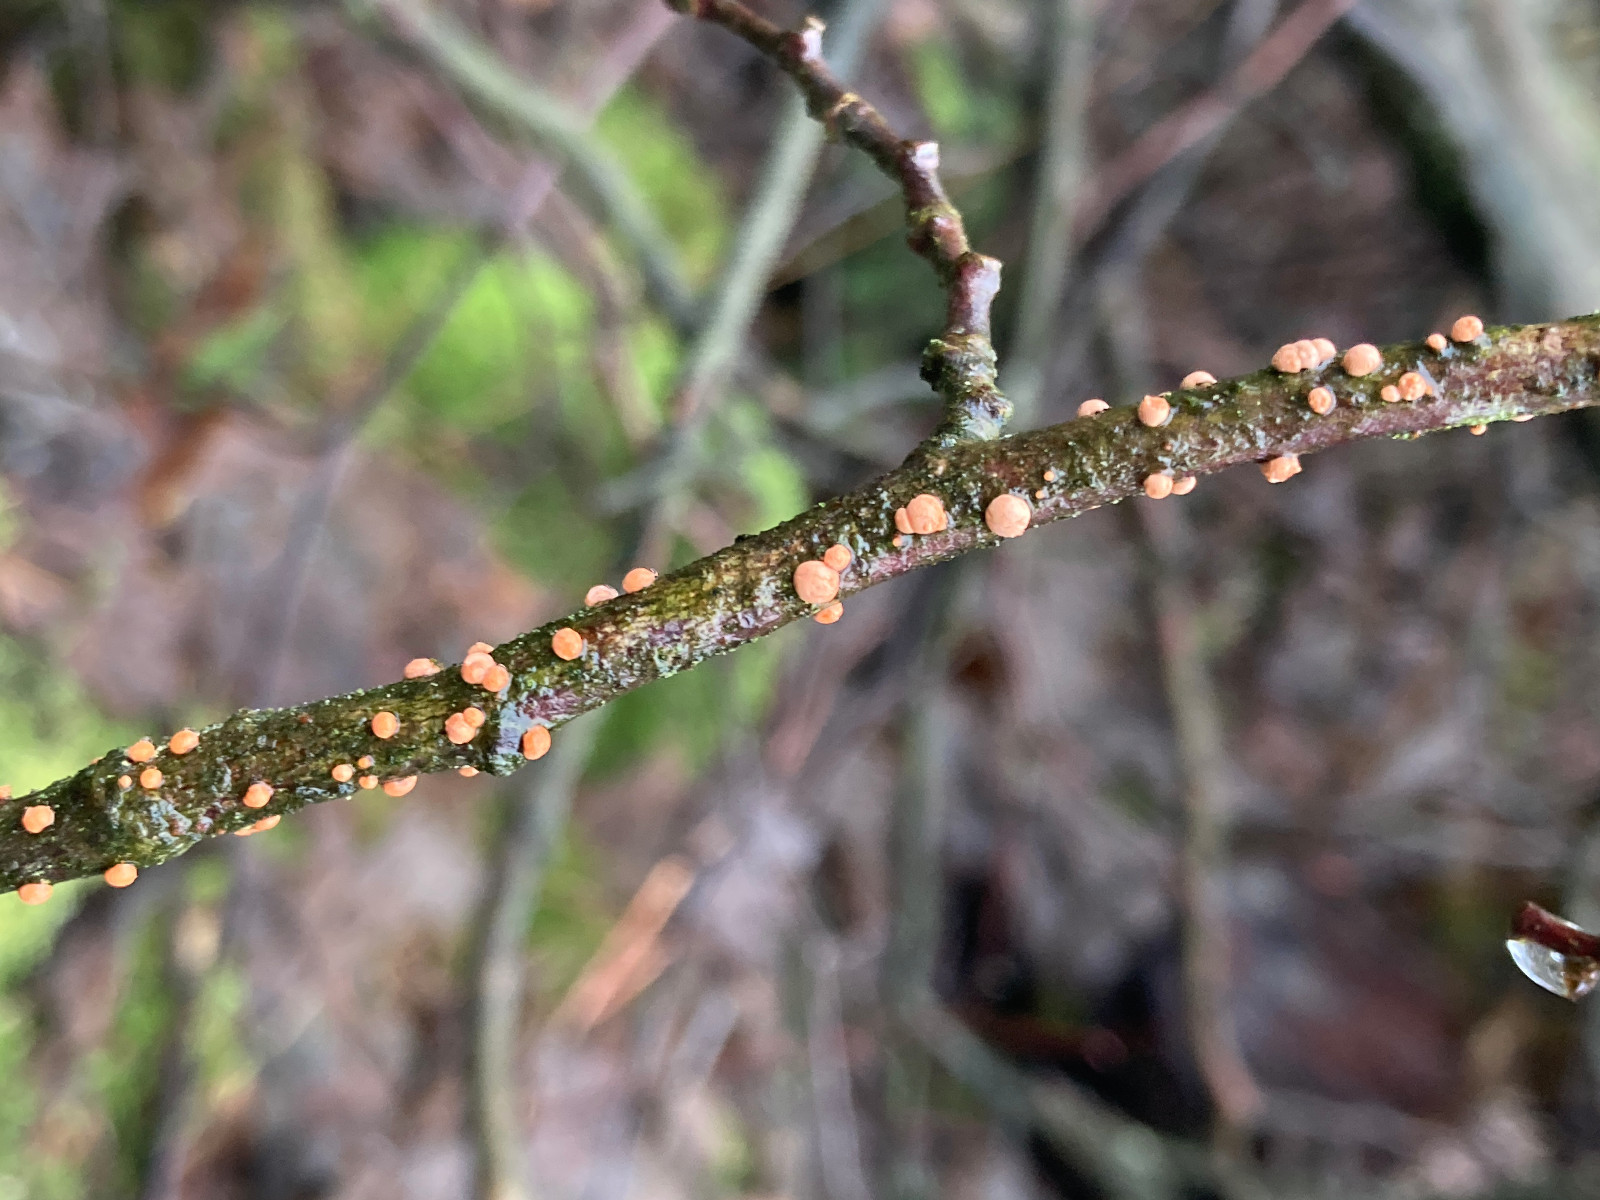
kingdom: Fungi
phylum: Ascomycota
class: Sordariomycetes
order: Hypocreales
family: Nectriaceae
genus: Nectria
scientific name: Nectria cinnabarina
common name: almindelig cinnobersvamp
